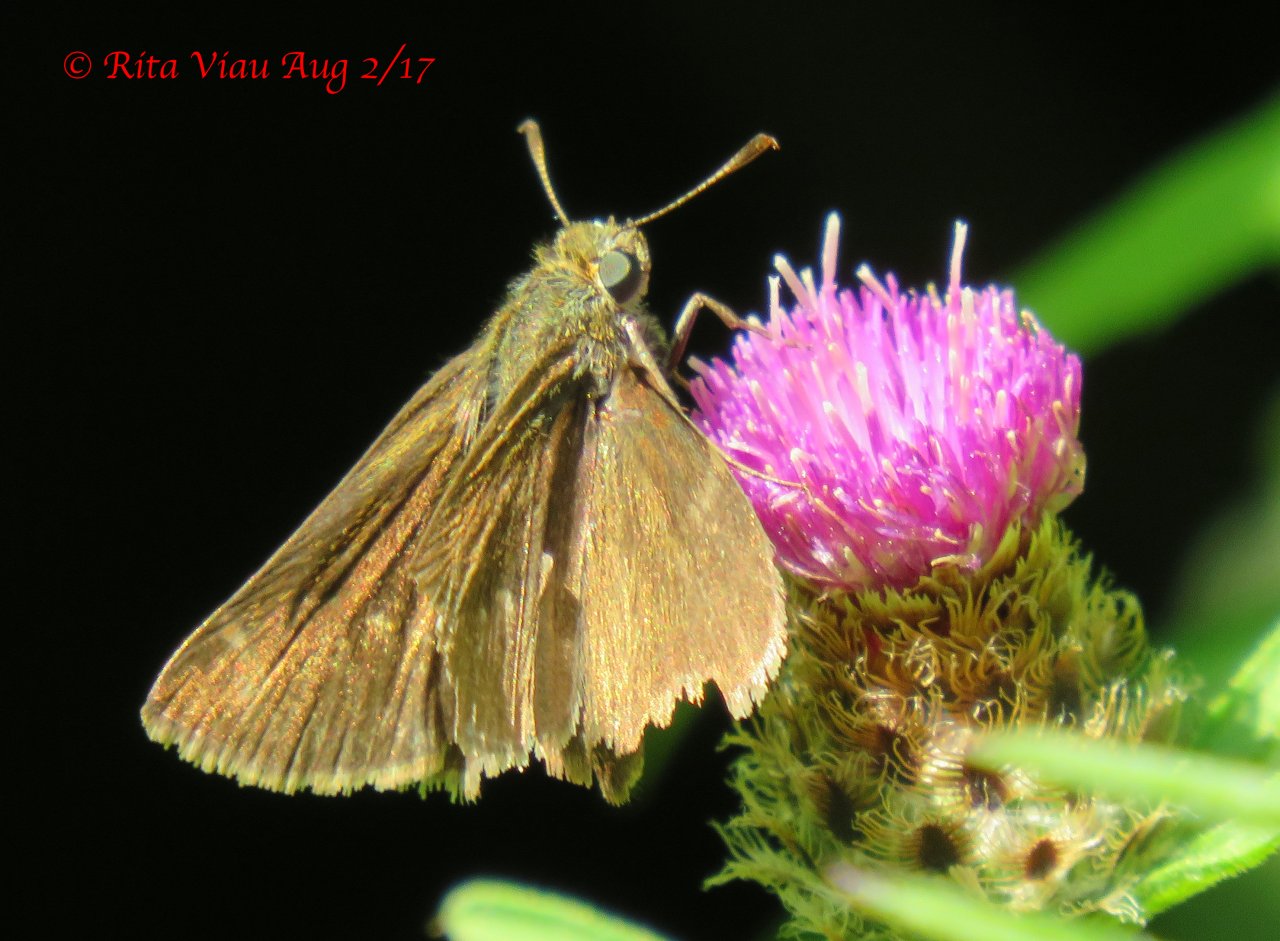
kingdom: Animalia
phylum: Arthropoda
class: Insecta
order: Lepidoptera
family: Hesperiidae
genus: Euphyes
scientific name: Euphyes vestris
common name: Dun Skipper
